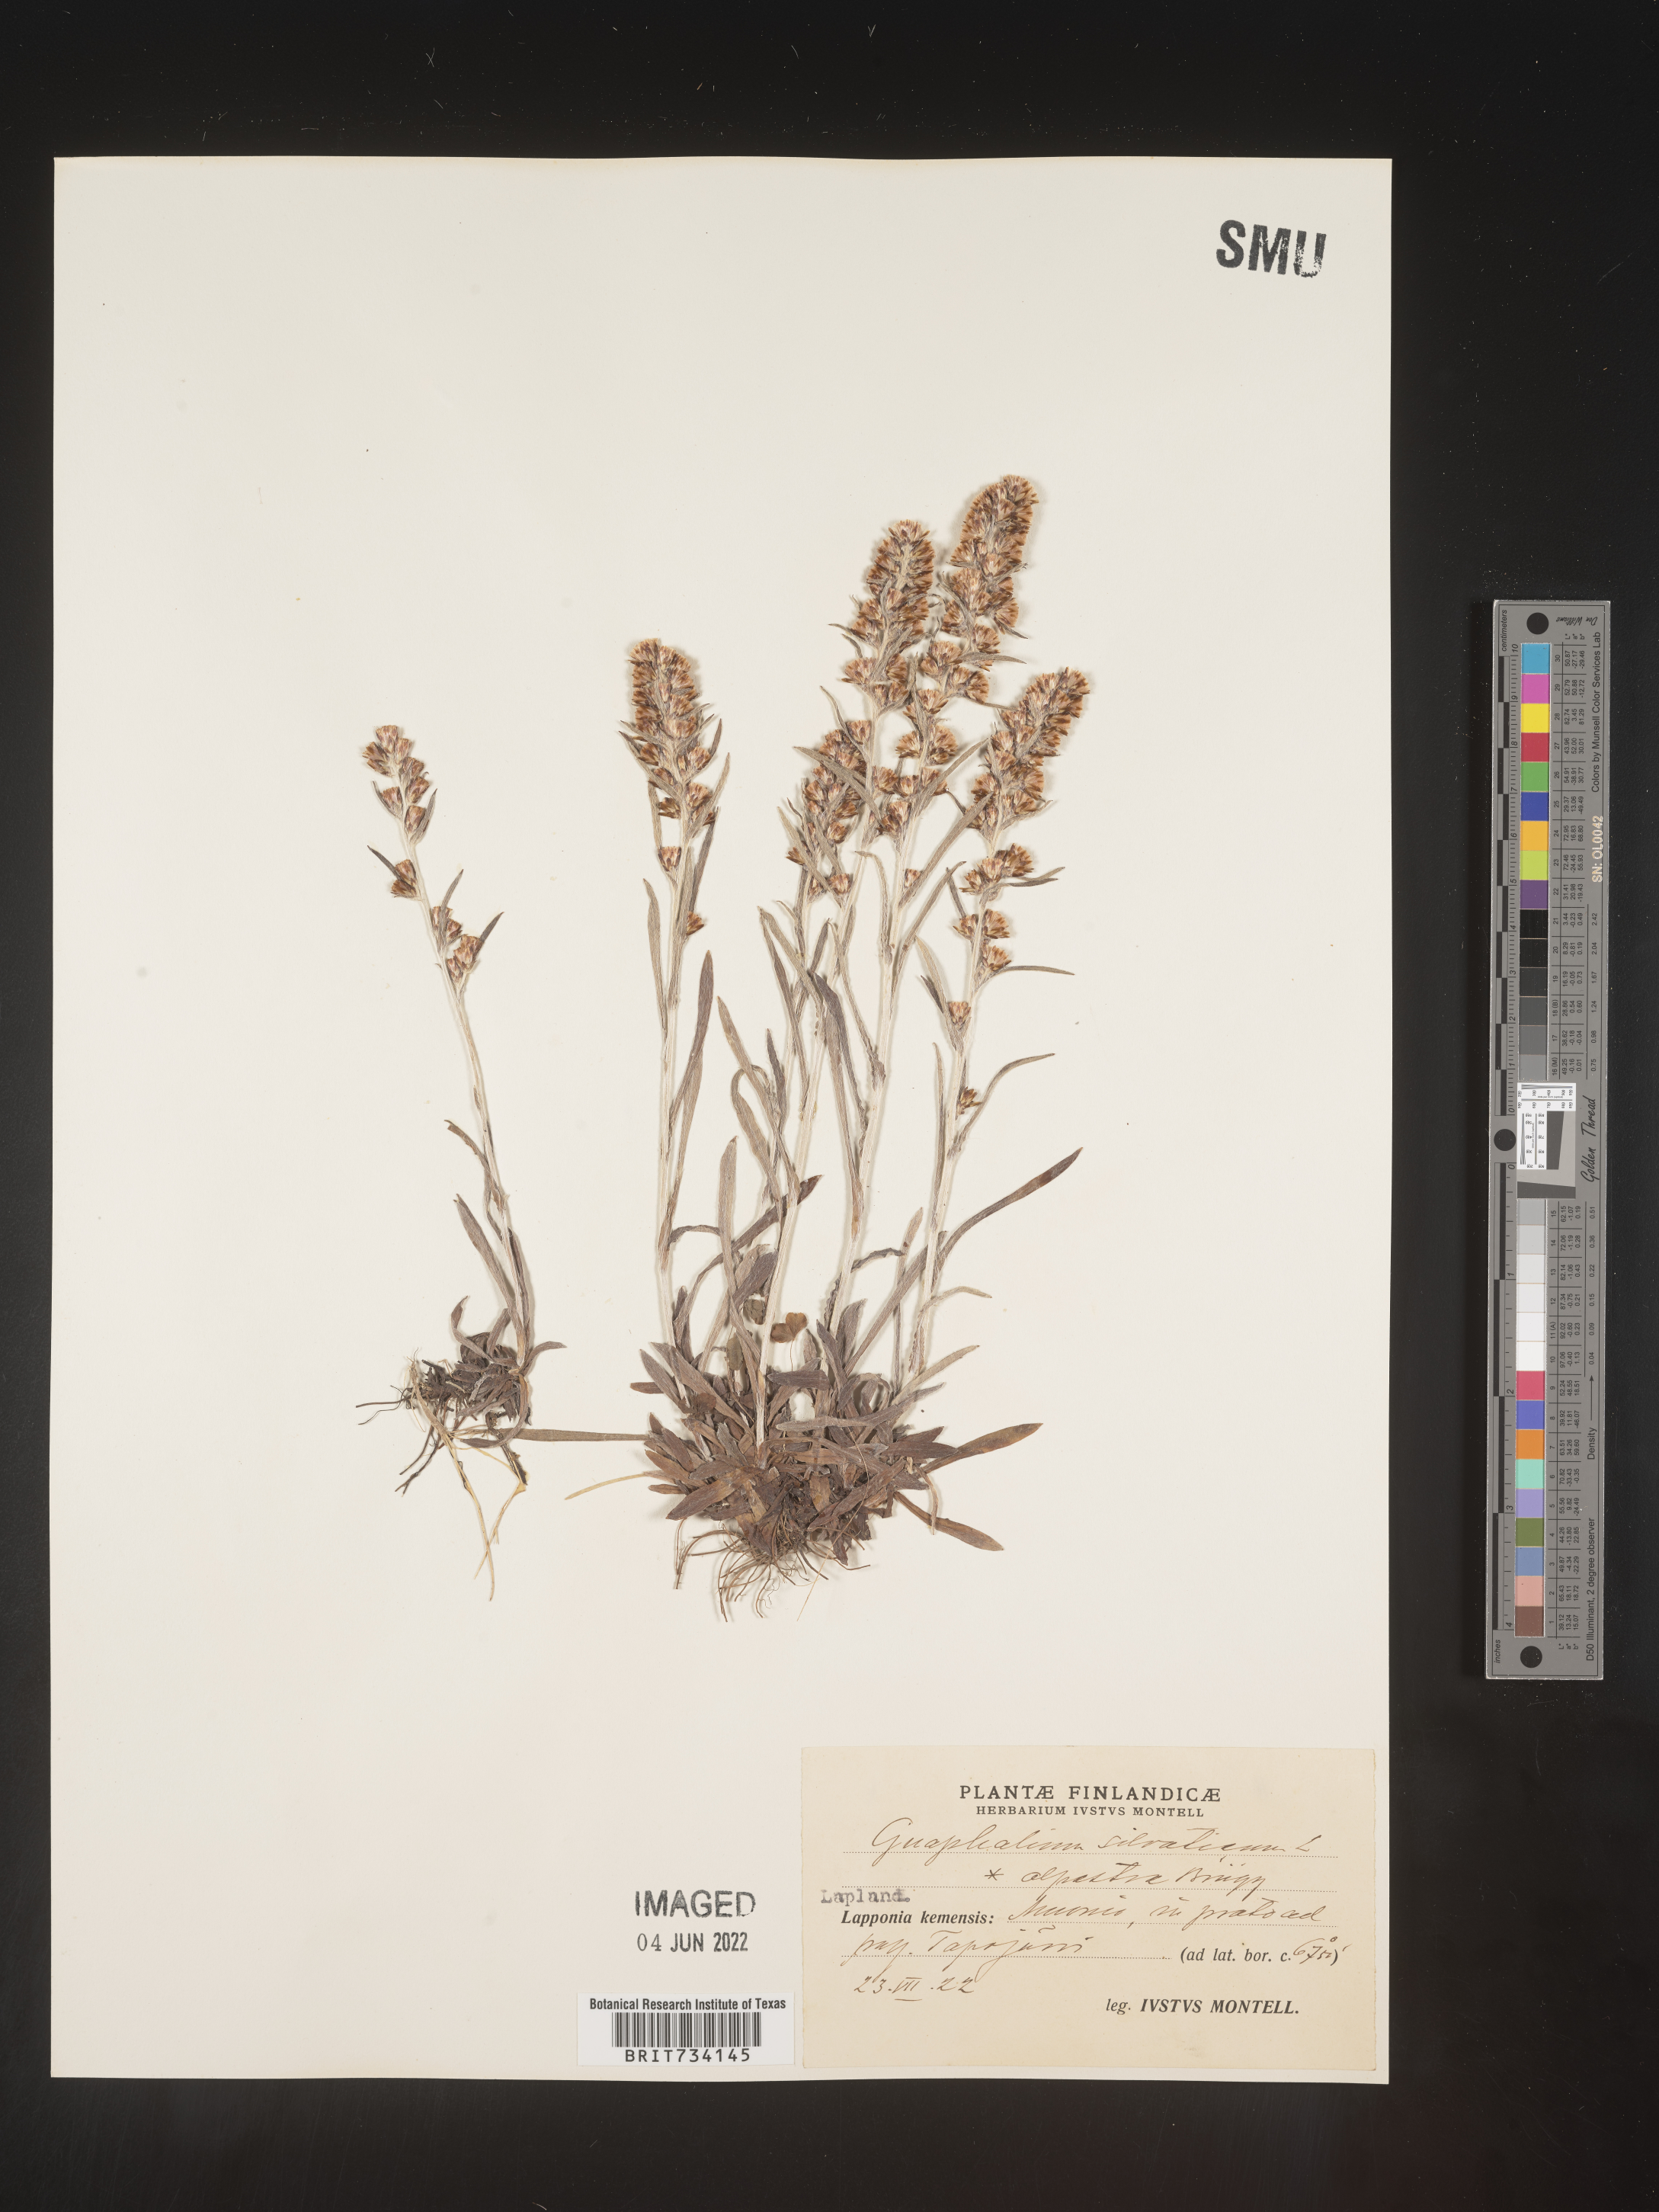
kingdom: Plantae
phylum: Tracheophyta
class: Magnoliopsida
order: Asterales
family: Asteraceae
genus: Omalotheca
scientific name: Omalotheca sylvatica
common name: Heath cudweed
